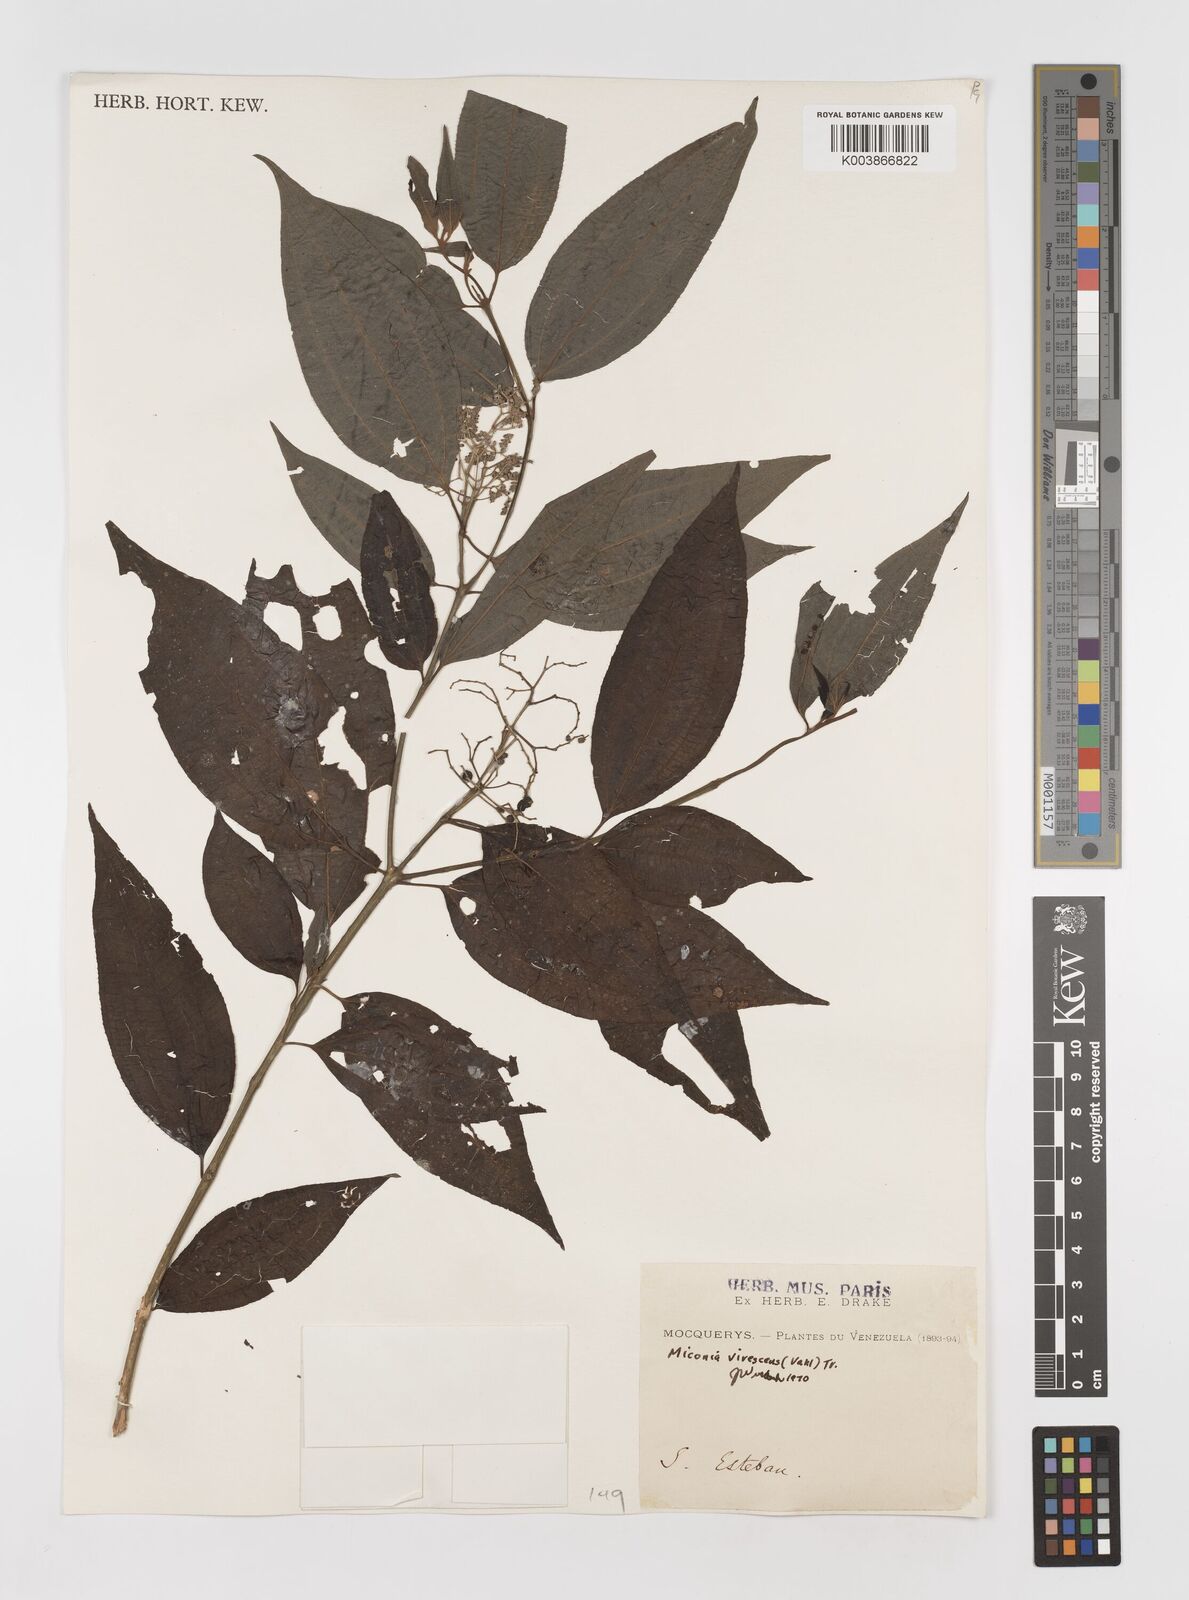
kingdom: Plantae
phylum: Tracheophyta
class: Magnoliopsida
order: Myrtales
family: Melastomataceae
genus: Miconia
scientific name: Miconia virescens
